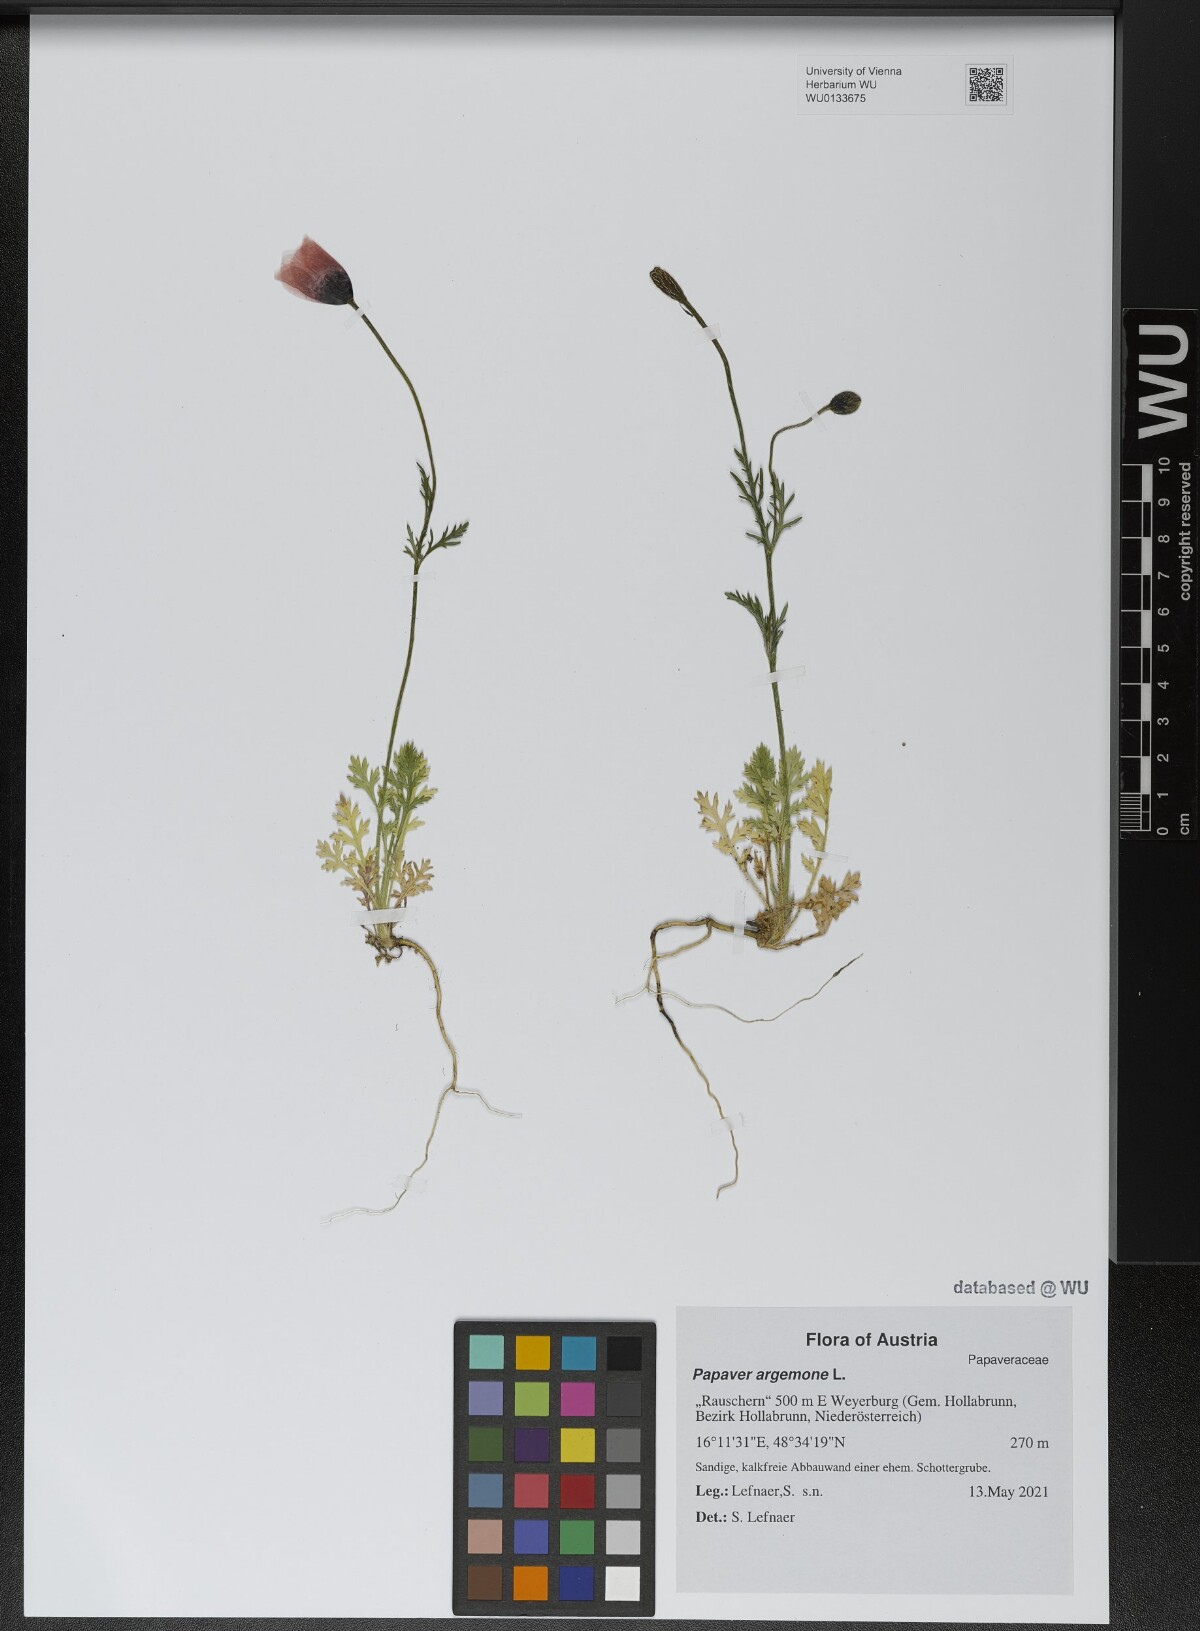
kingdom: Plantae
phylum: Tracheophyta
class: Magnoliopsida
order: Ranunculales
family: Papaveraceae
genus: Roemeria
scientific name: Roemeria argemone
